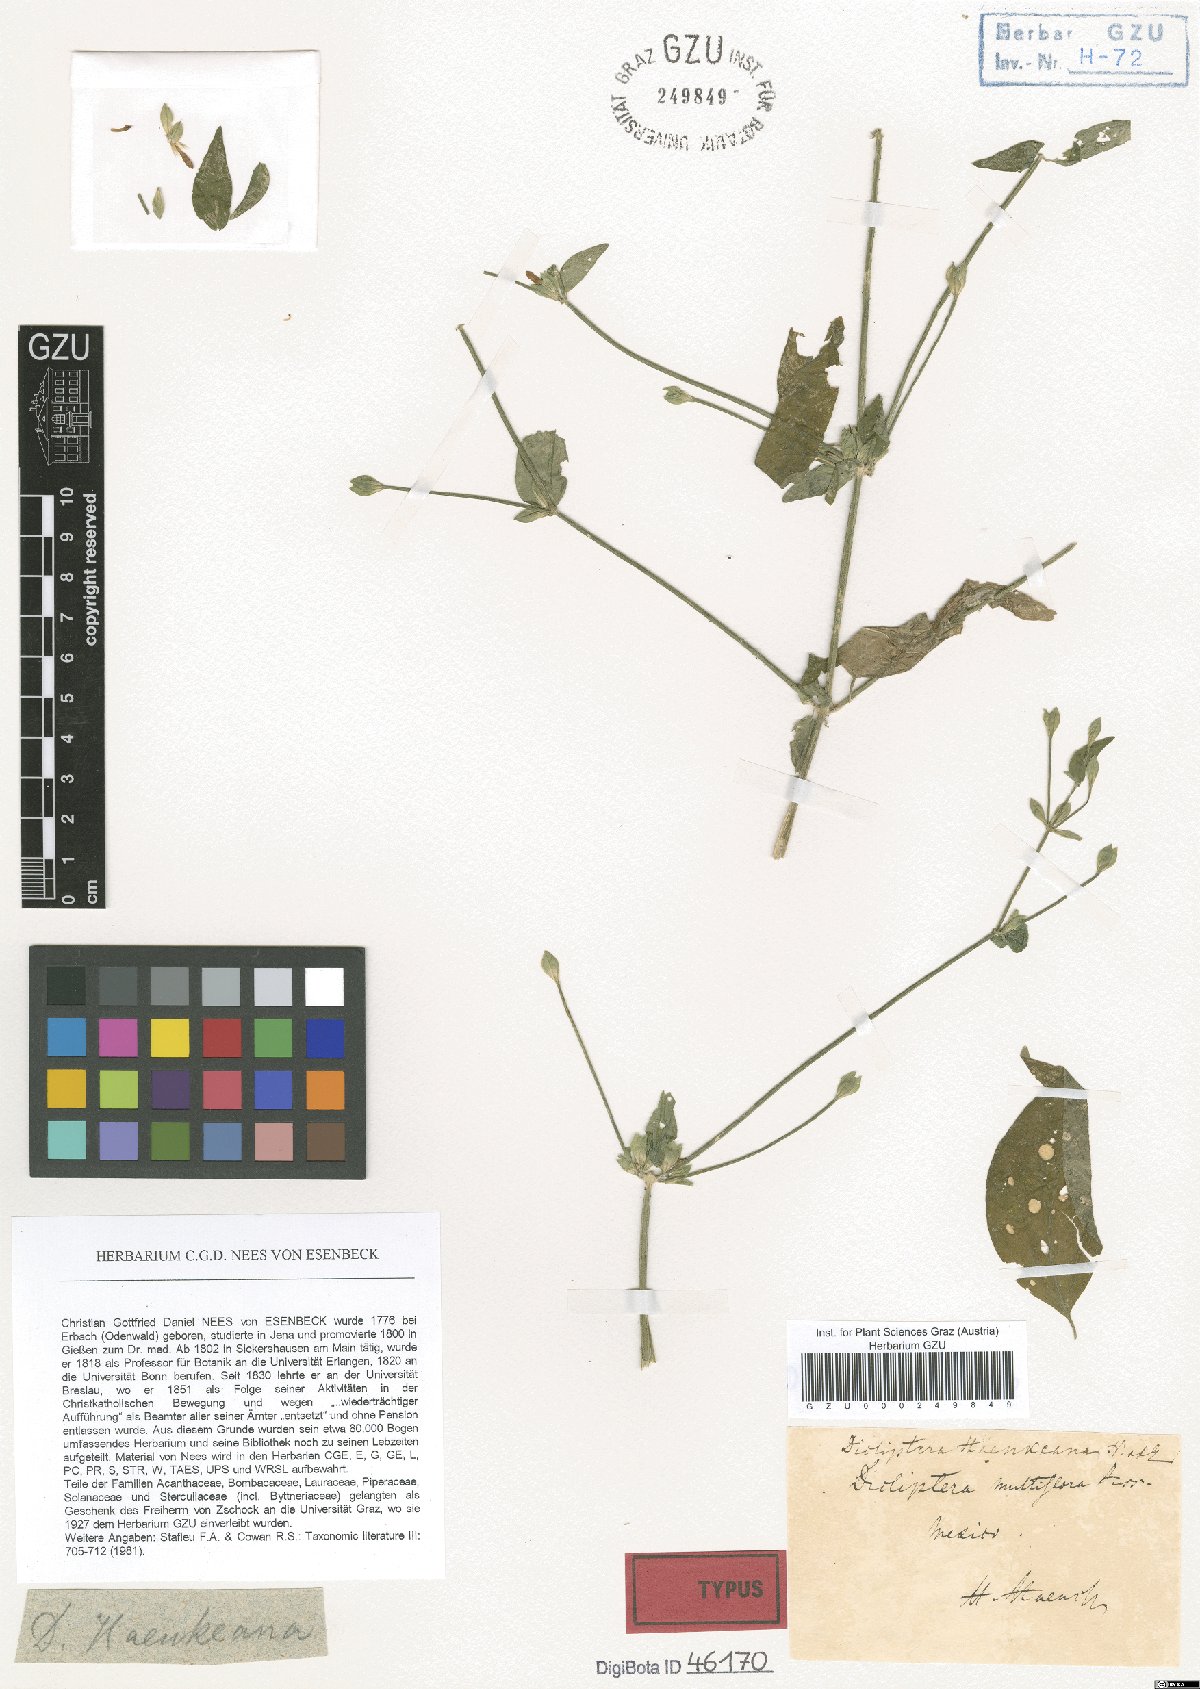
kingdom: Plantae
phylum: Tracheophyta
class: Magnoliopsida
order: Lamiales
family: Acanthaceae
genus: Dicliptera
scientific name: Dicliptera haenkeana
